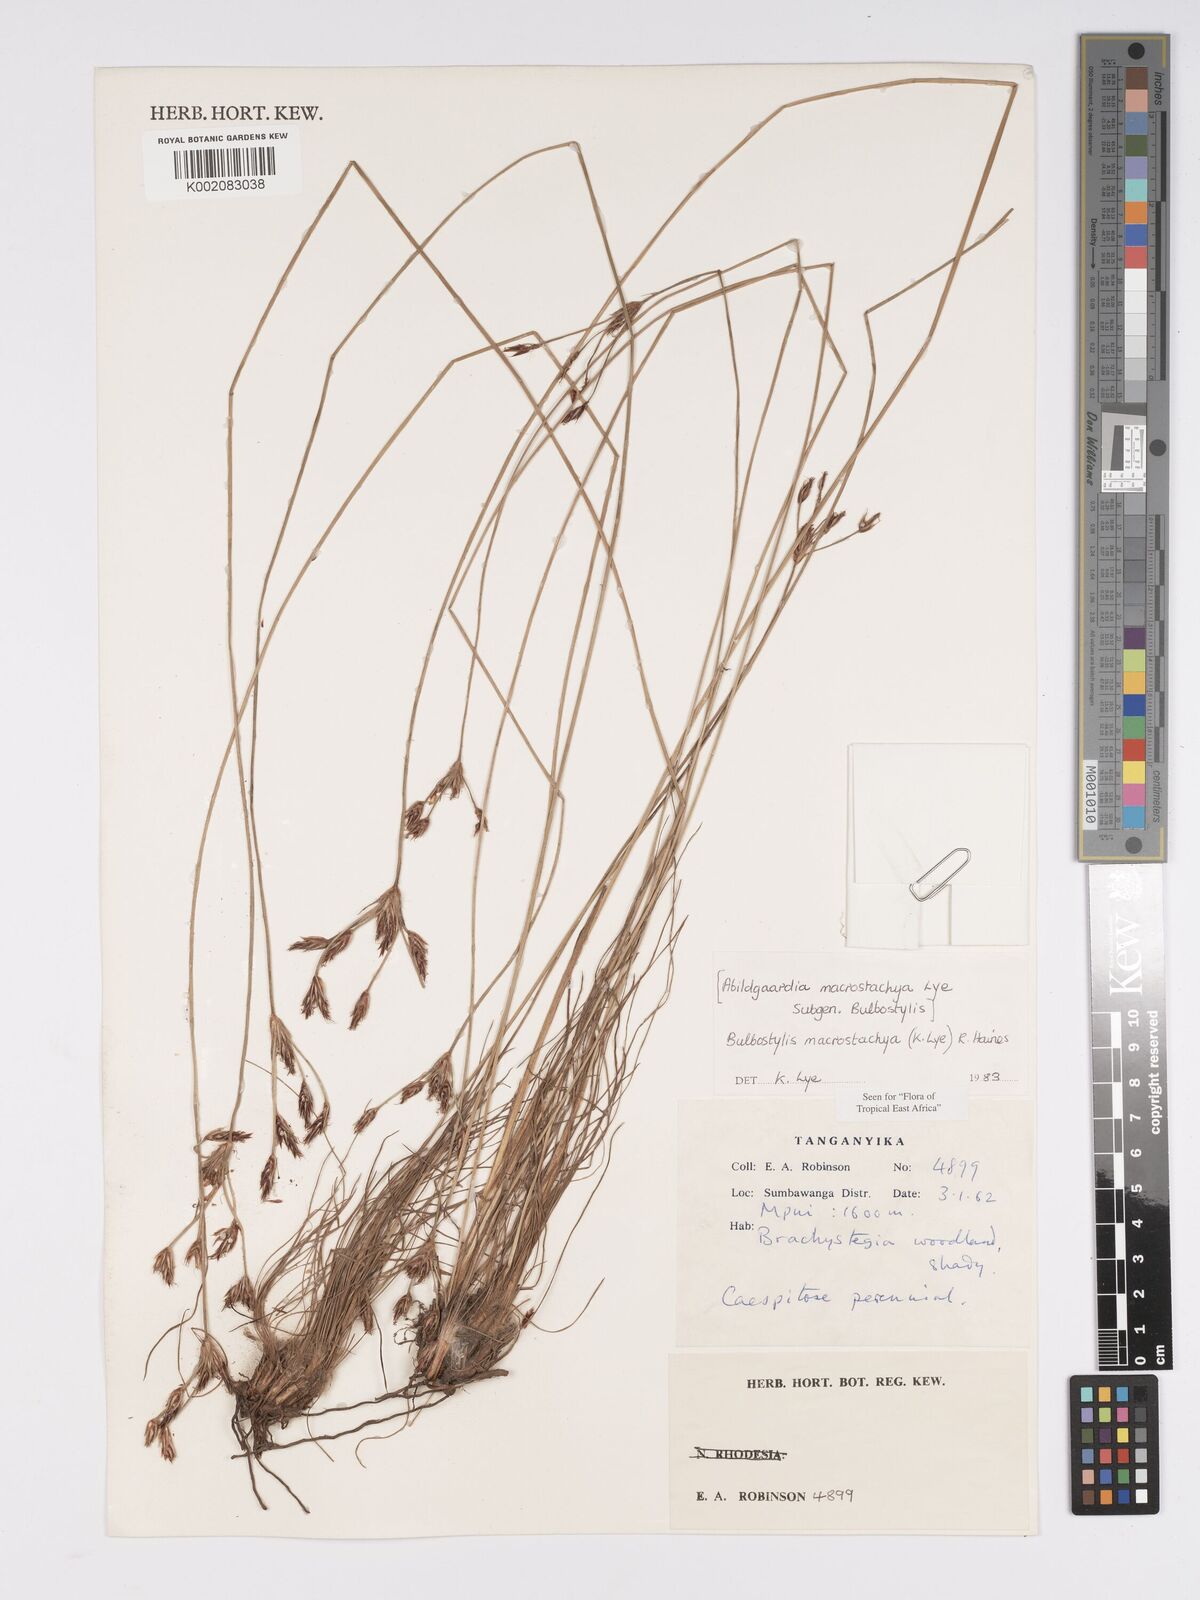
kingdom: Plantae
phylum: Tracheophyta
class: Liliopsida
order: Poales
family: Cyperaceae
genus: Bulbostylis
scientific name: Bulbostylis macrostachya
